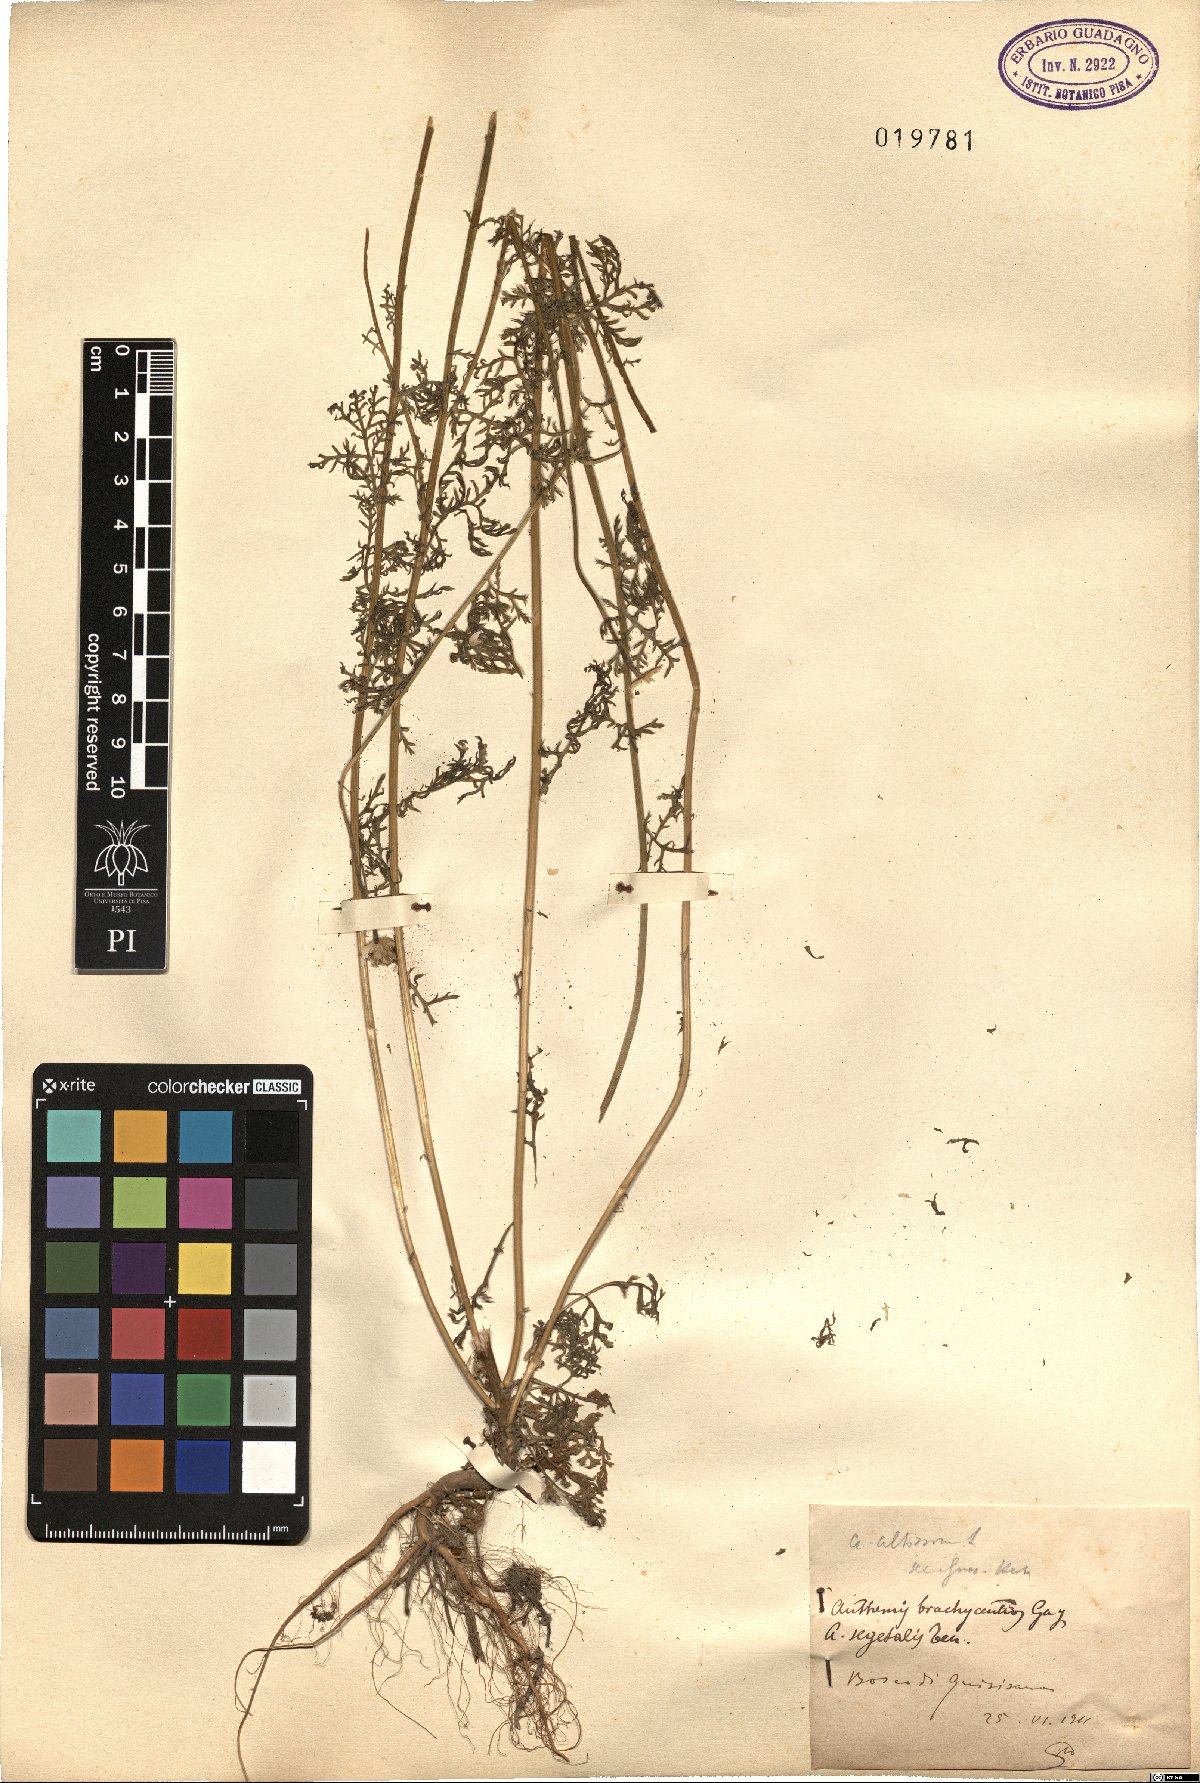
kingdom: Plantae
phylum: Tracheophyta
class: Magnoliopsida
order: Asterales
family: Asteraceae
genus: Cota
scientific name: Cota coelopoda
